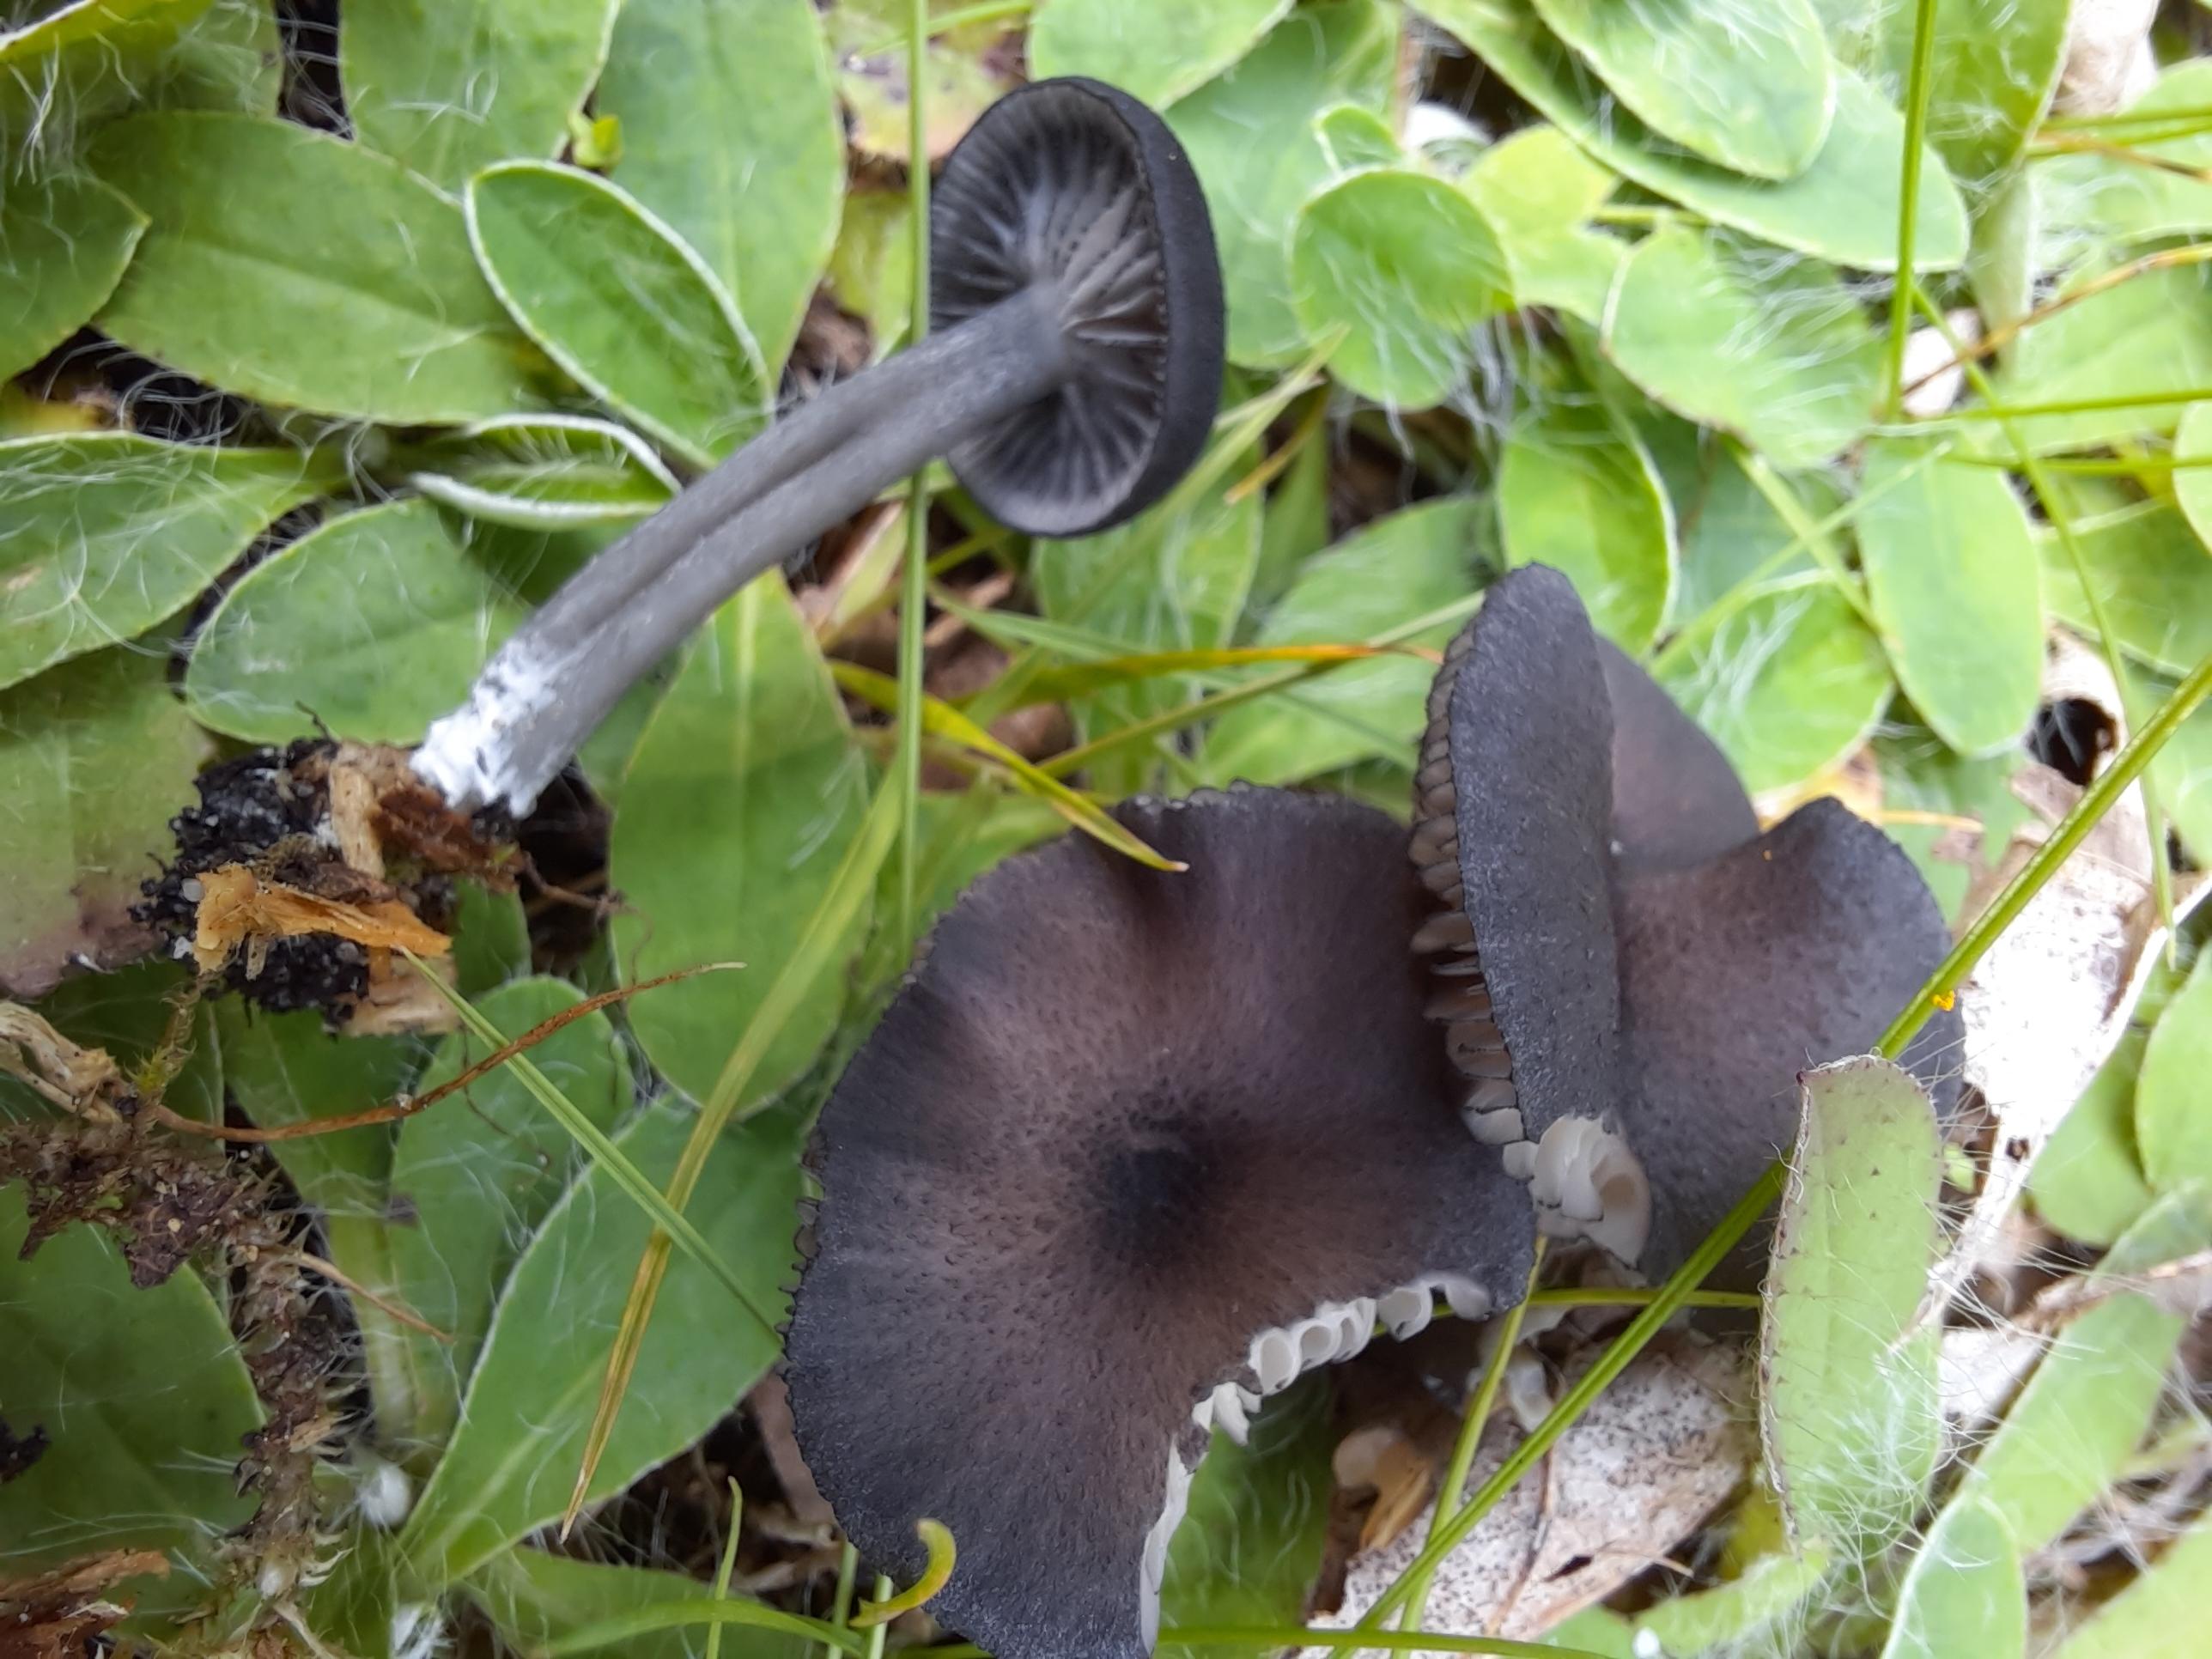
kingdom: Fungi
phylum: Basidiomycota
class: Agaricomycetes
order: Agaricales
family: Entolomataceae
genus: Entoloma
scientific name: Entoloma
